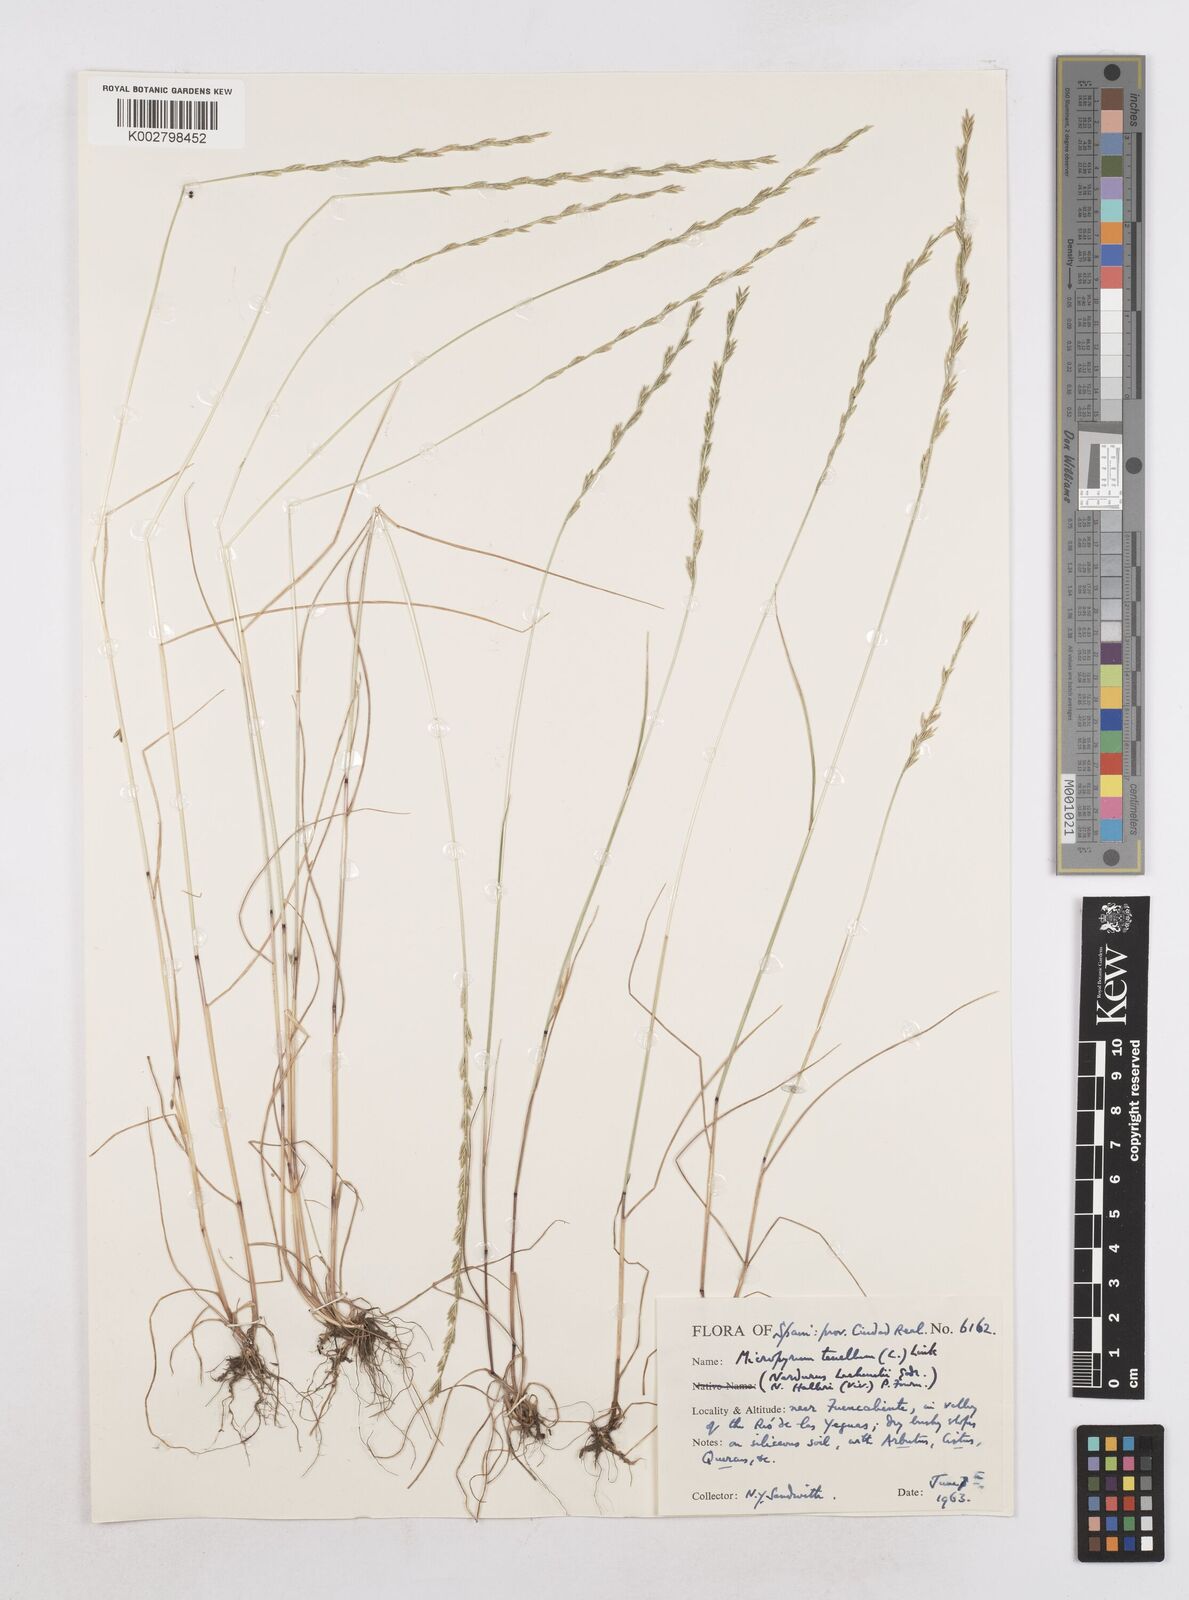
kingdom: Plantae
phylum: Tracheophyta
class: Liliopsida
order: Poales
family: Poaceae
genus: Festuca
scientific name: Festuca lachenalii
